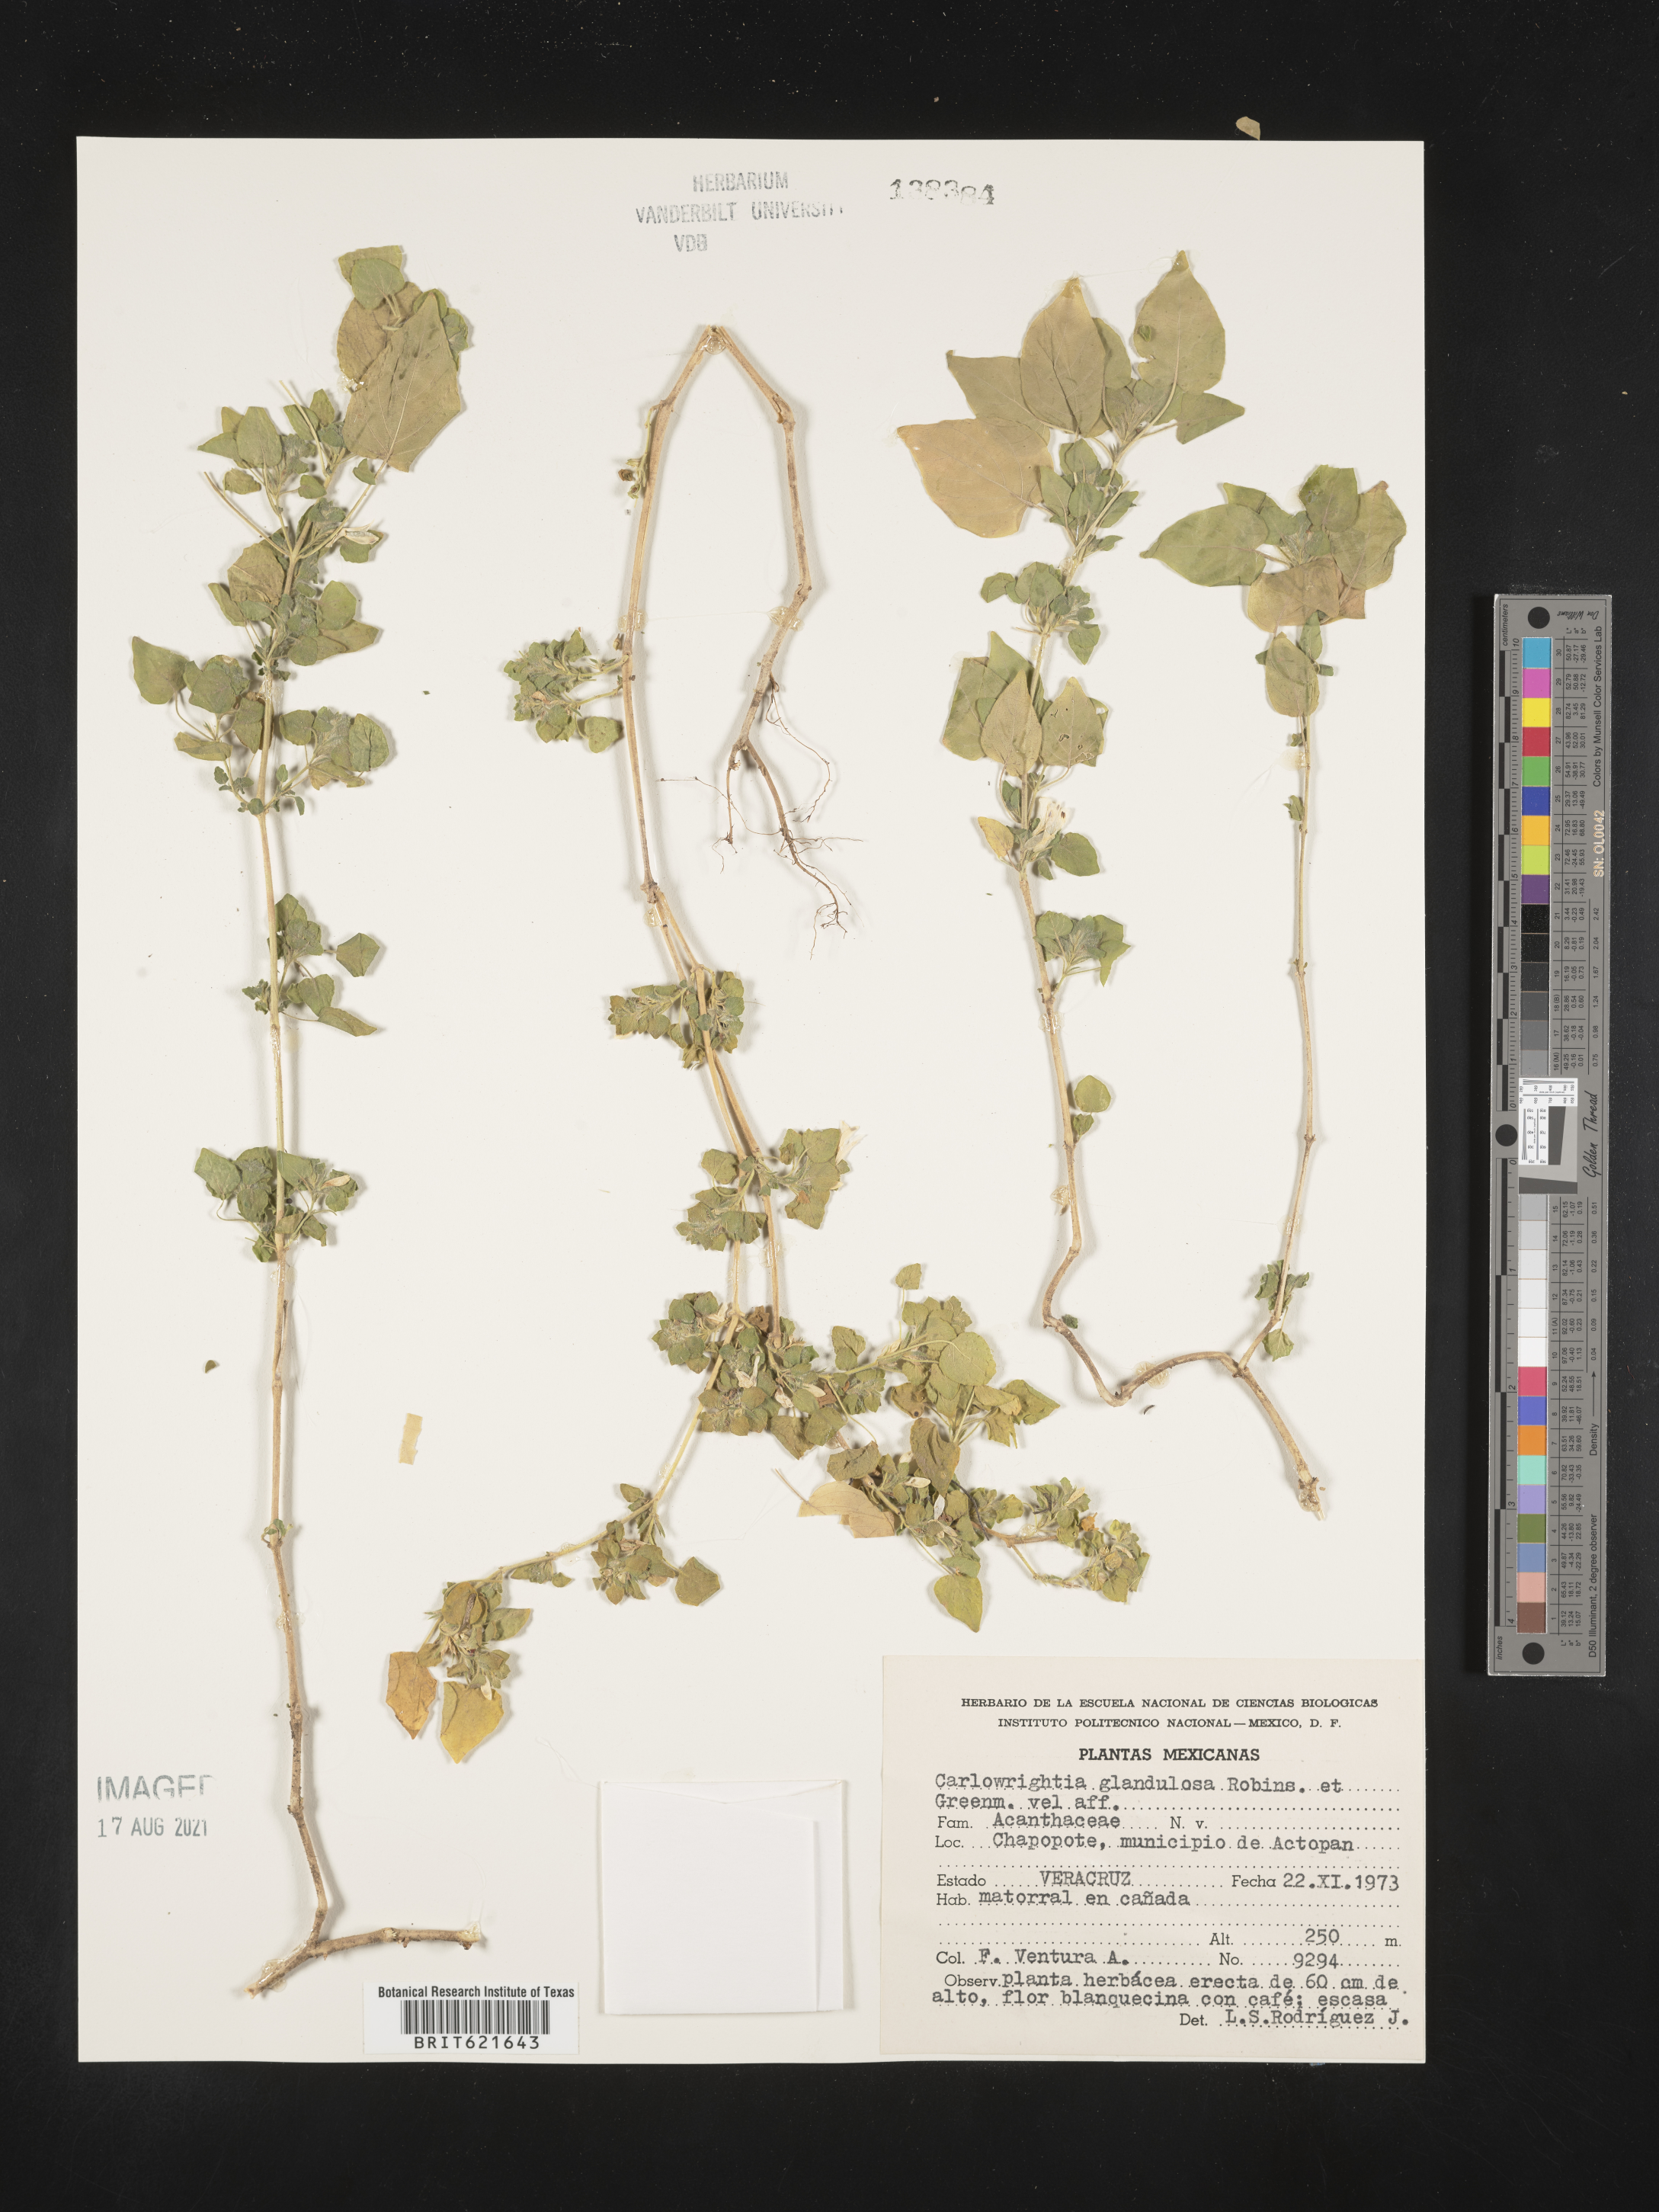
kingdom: Plantae
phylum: Tracheophyta
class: Magnoliopsida
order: Lamiales
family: Acanthaceae
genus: Carlowrightia
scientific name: Carlowrightia
